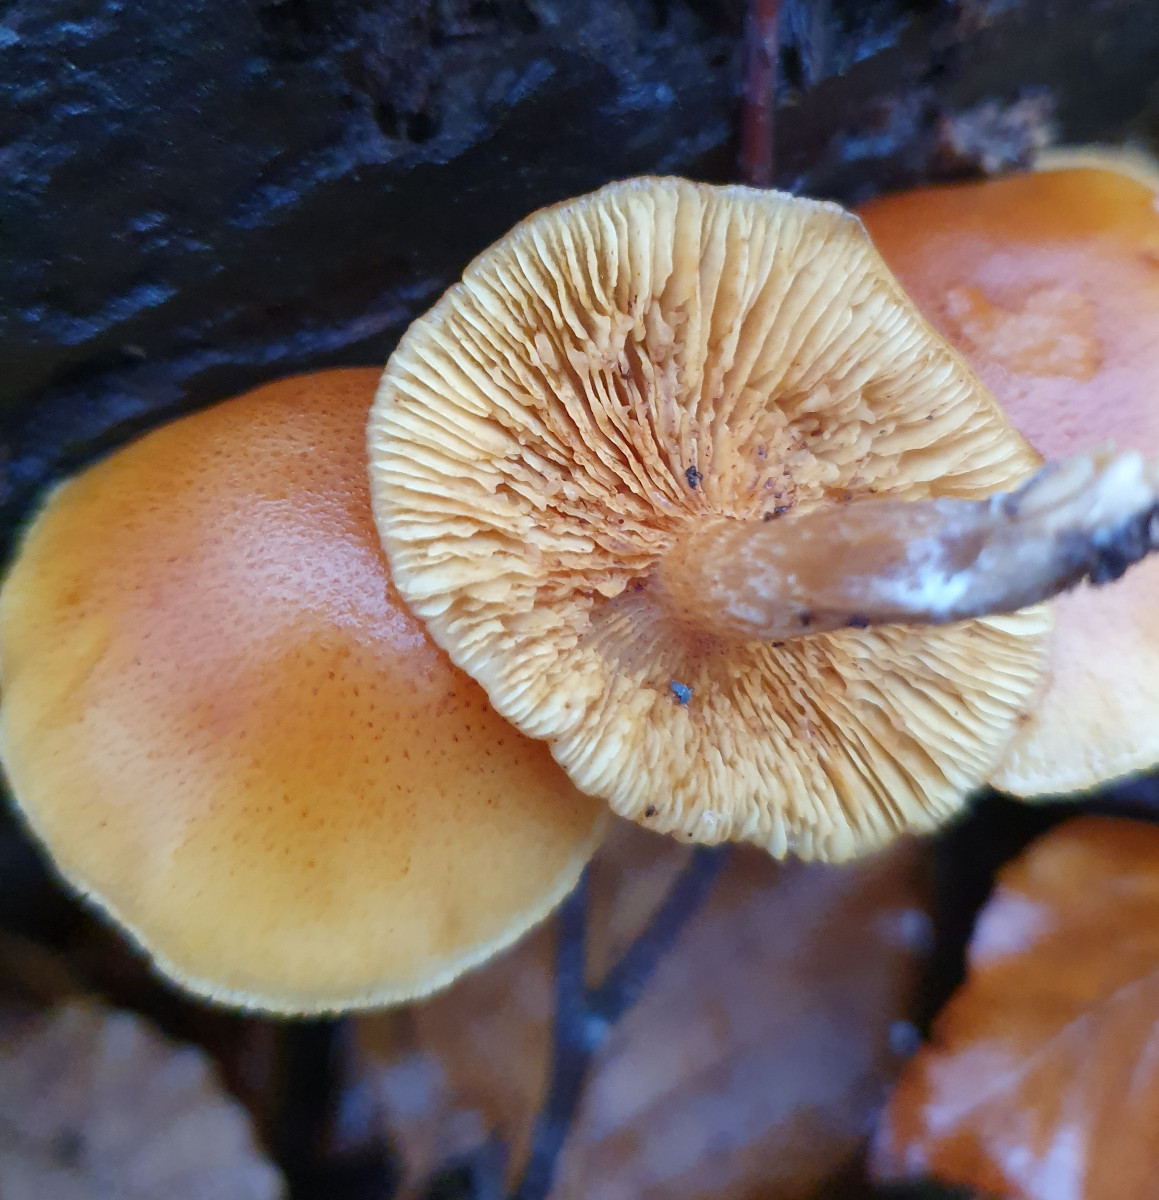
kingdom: Fungi
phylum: Basidiomycota
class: Agaricomycetes
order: Agaricales
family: Hymenogastraceae
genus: Gymnopilus
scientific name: Gymnopilus penetrans
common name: plettet flammehat
